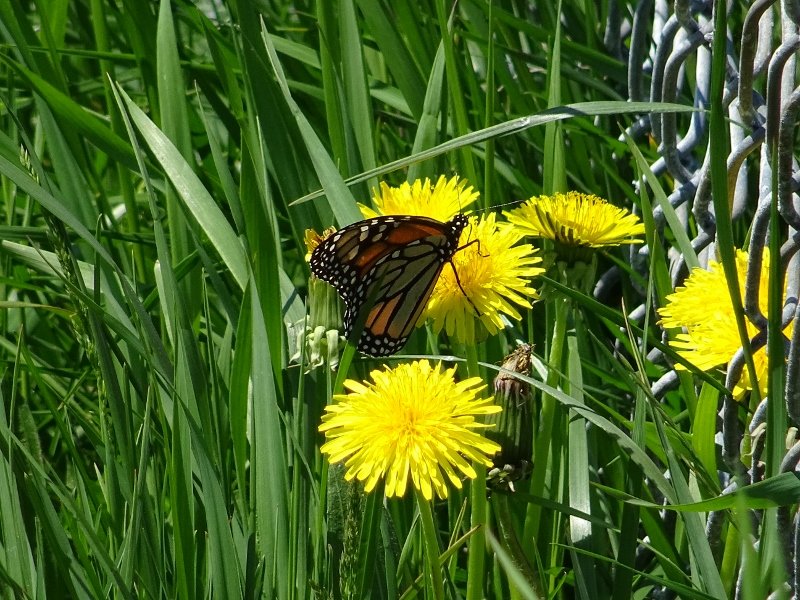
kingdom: Animalia
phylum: Arthropoda
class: Insecta
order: Lepidoptera
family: Nymphalidae
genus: Danaus
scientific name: Danaus plexippus
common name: Monarch
